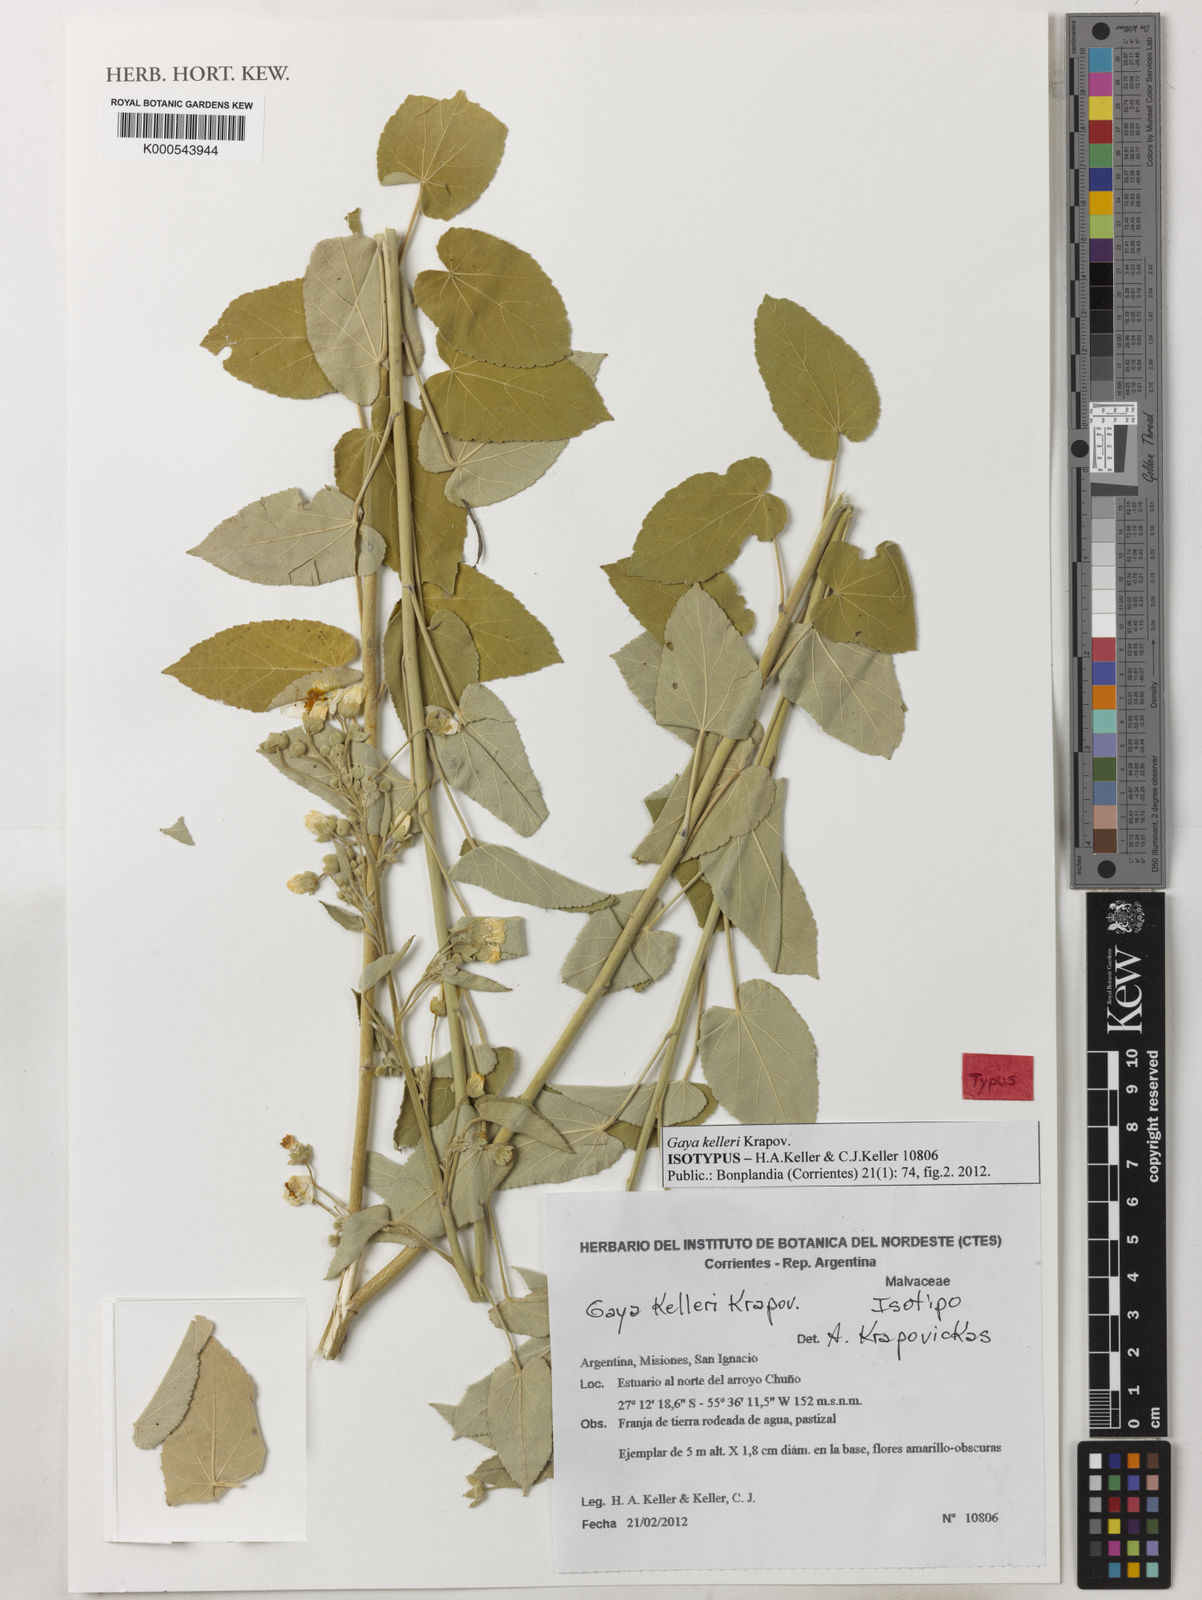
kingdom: Plantae
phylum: Tracheophyta
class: Magnoliopsida
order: Malvales
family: Malvaceae
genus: Gaya
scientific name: Gaya kelleri
